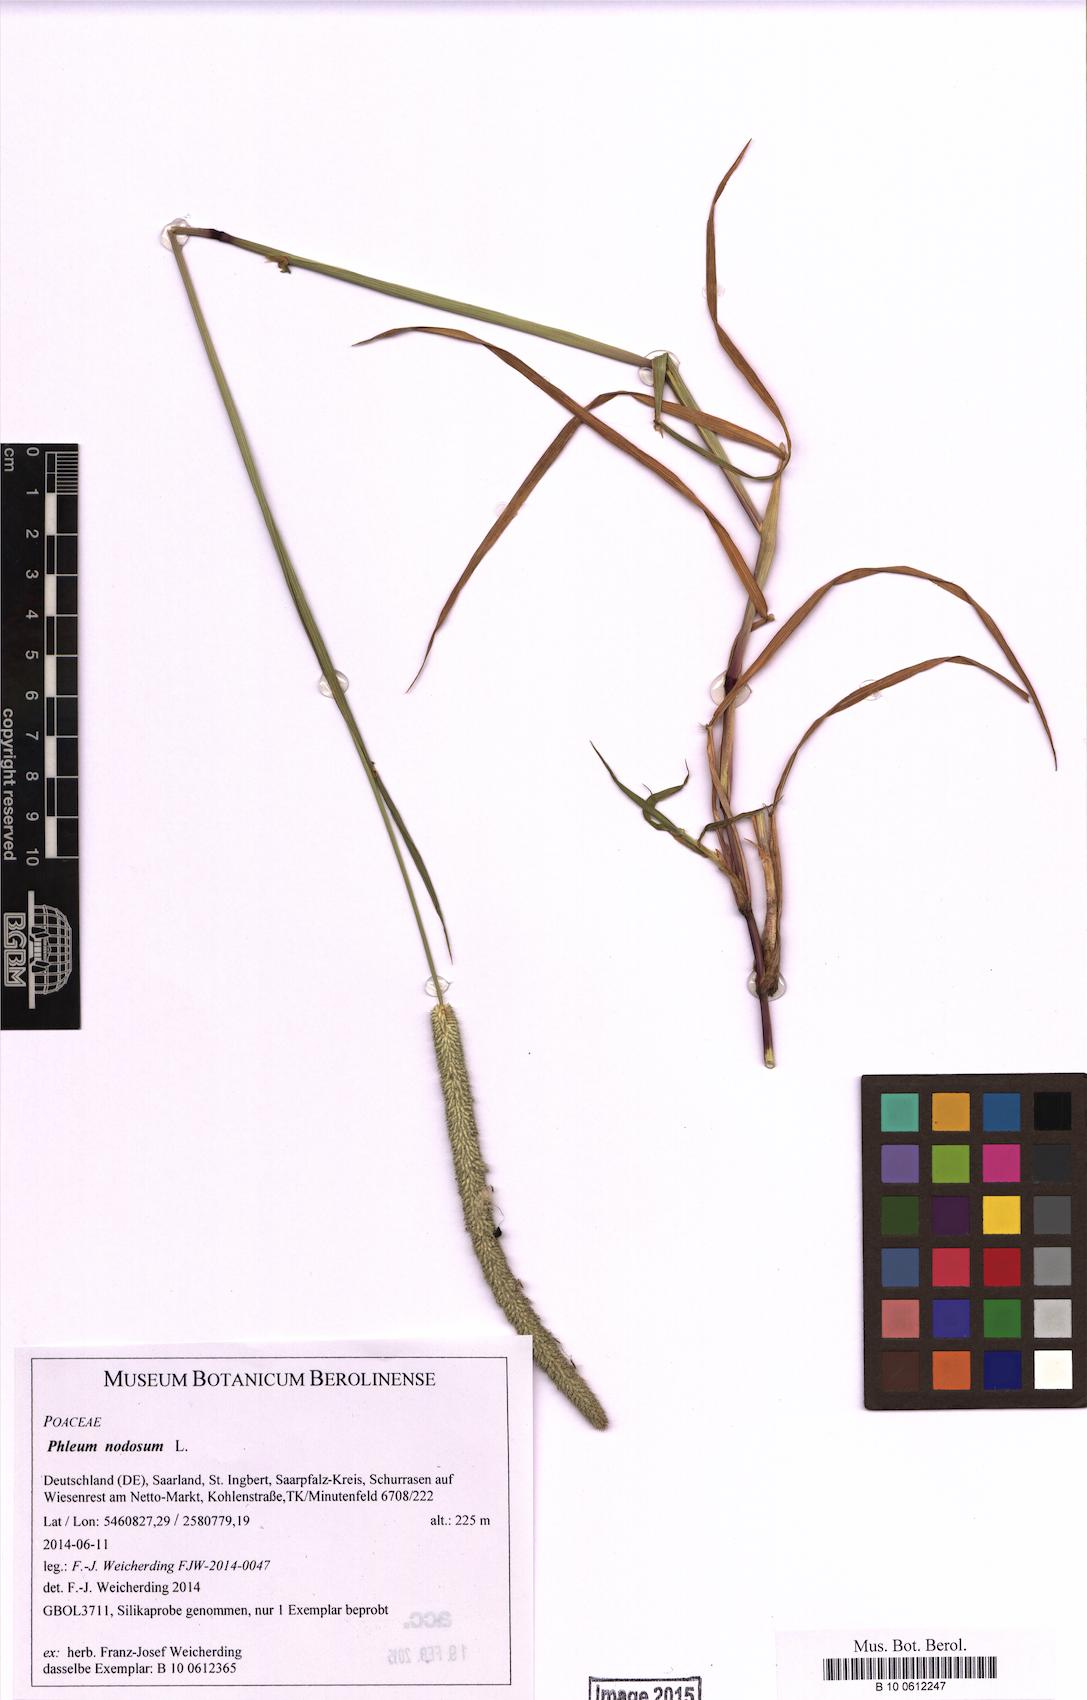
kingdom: Plantae
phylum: Tracheophyta
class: Liliopsida
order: Poales
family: Poaceae
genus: Phleum
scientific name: Phleum pratense
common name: Timothy grass
